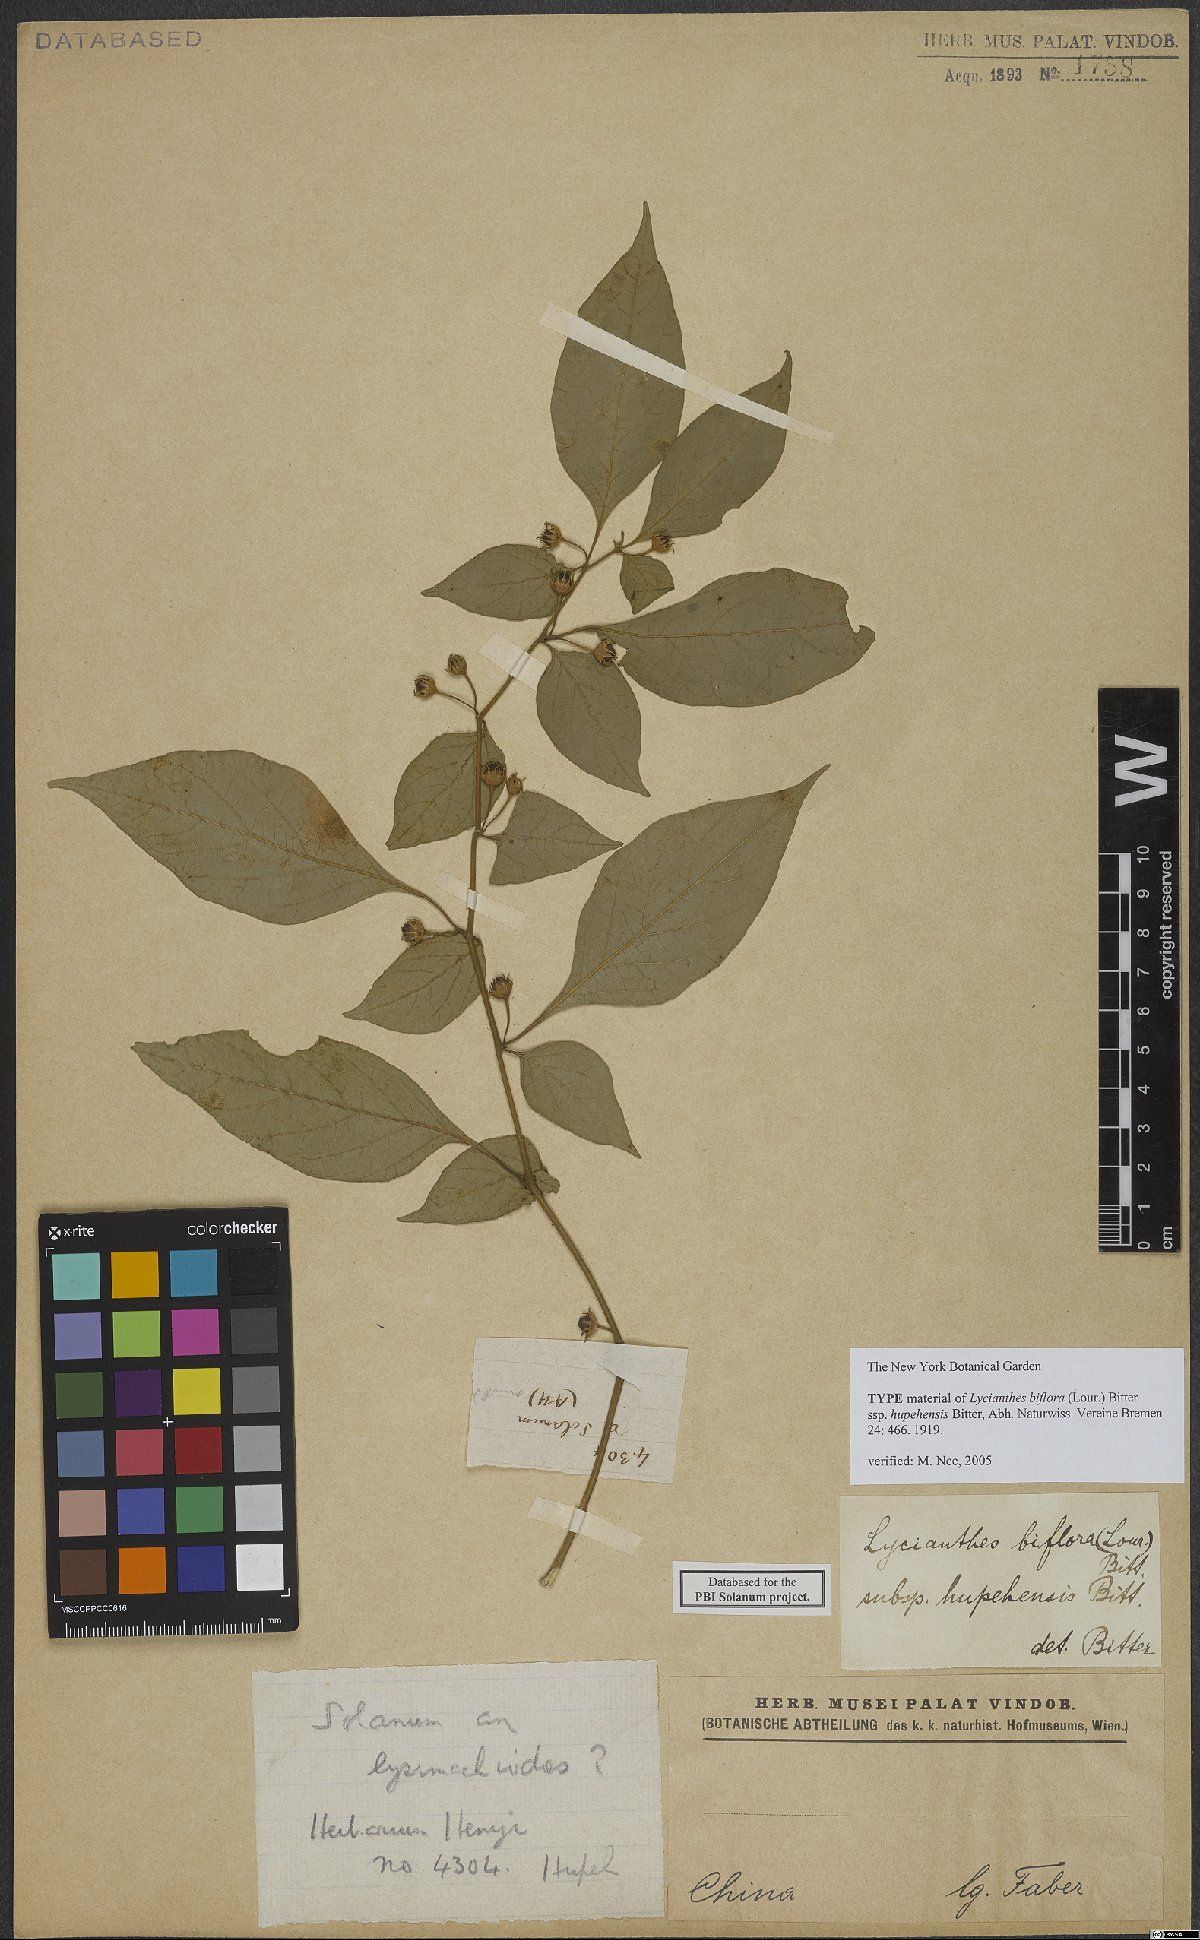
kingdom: Plantae
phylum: Tracheophyta
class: Magnoliopsida
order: Solanales
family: Solanaceae
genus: Lycianthes
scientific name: Lycianthes biflora
